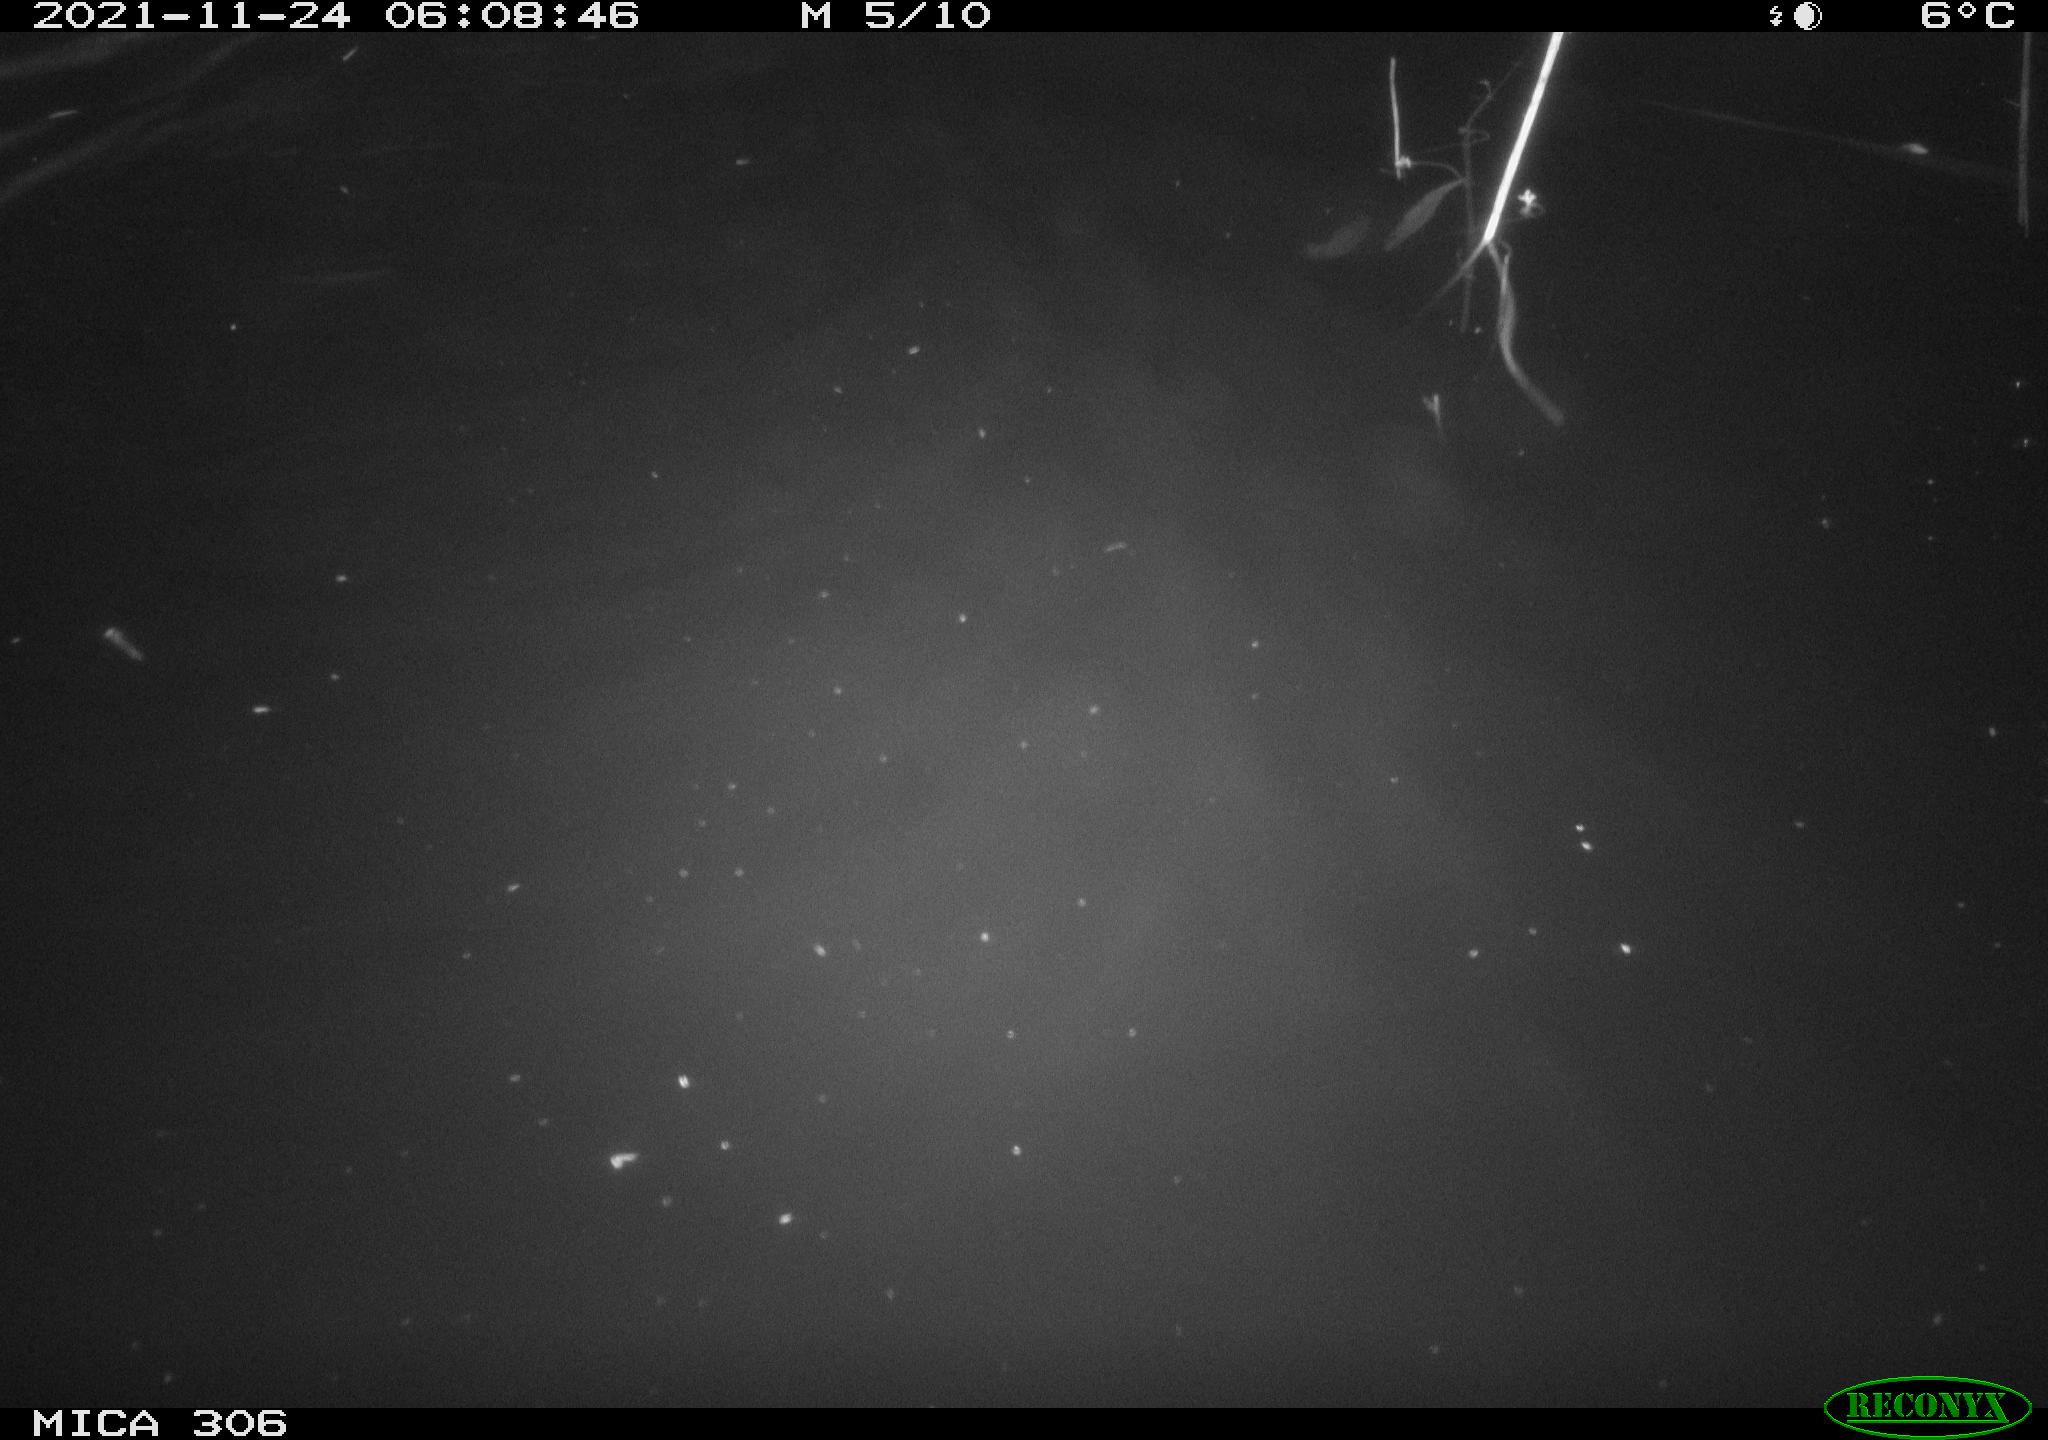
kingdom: Animalia
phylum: Chordata
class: Mammalia
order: Rodentia
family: Cricetidae
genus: Ondatra
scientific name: Ondatra zibethicus
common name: Muskrat
